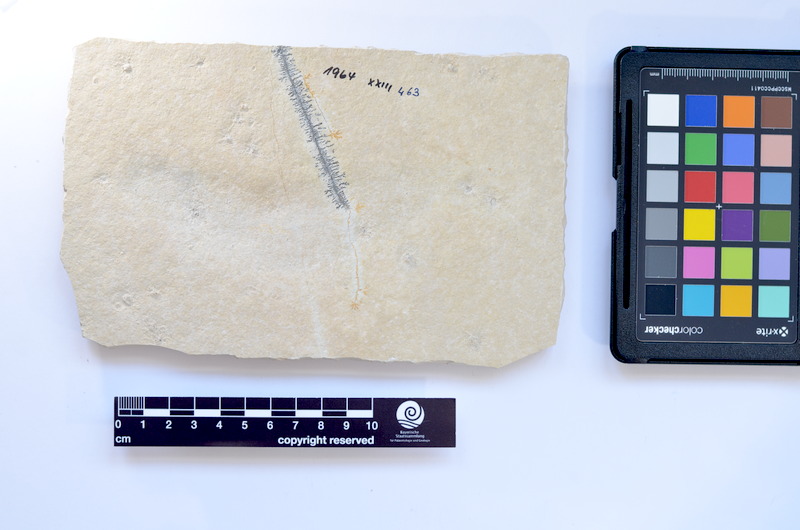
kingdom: Animalia
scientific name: Animalia
